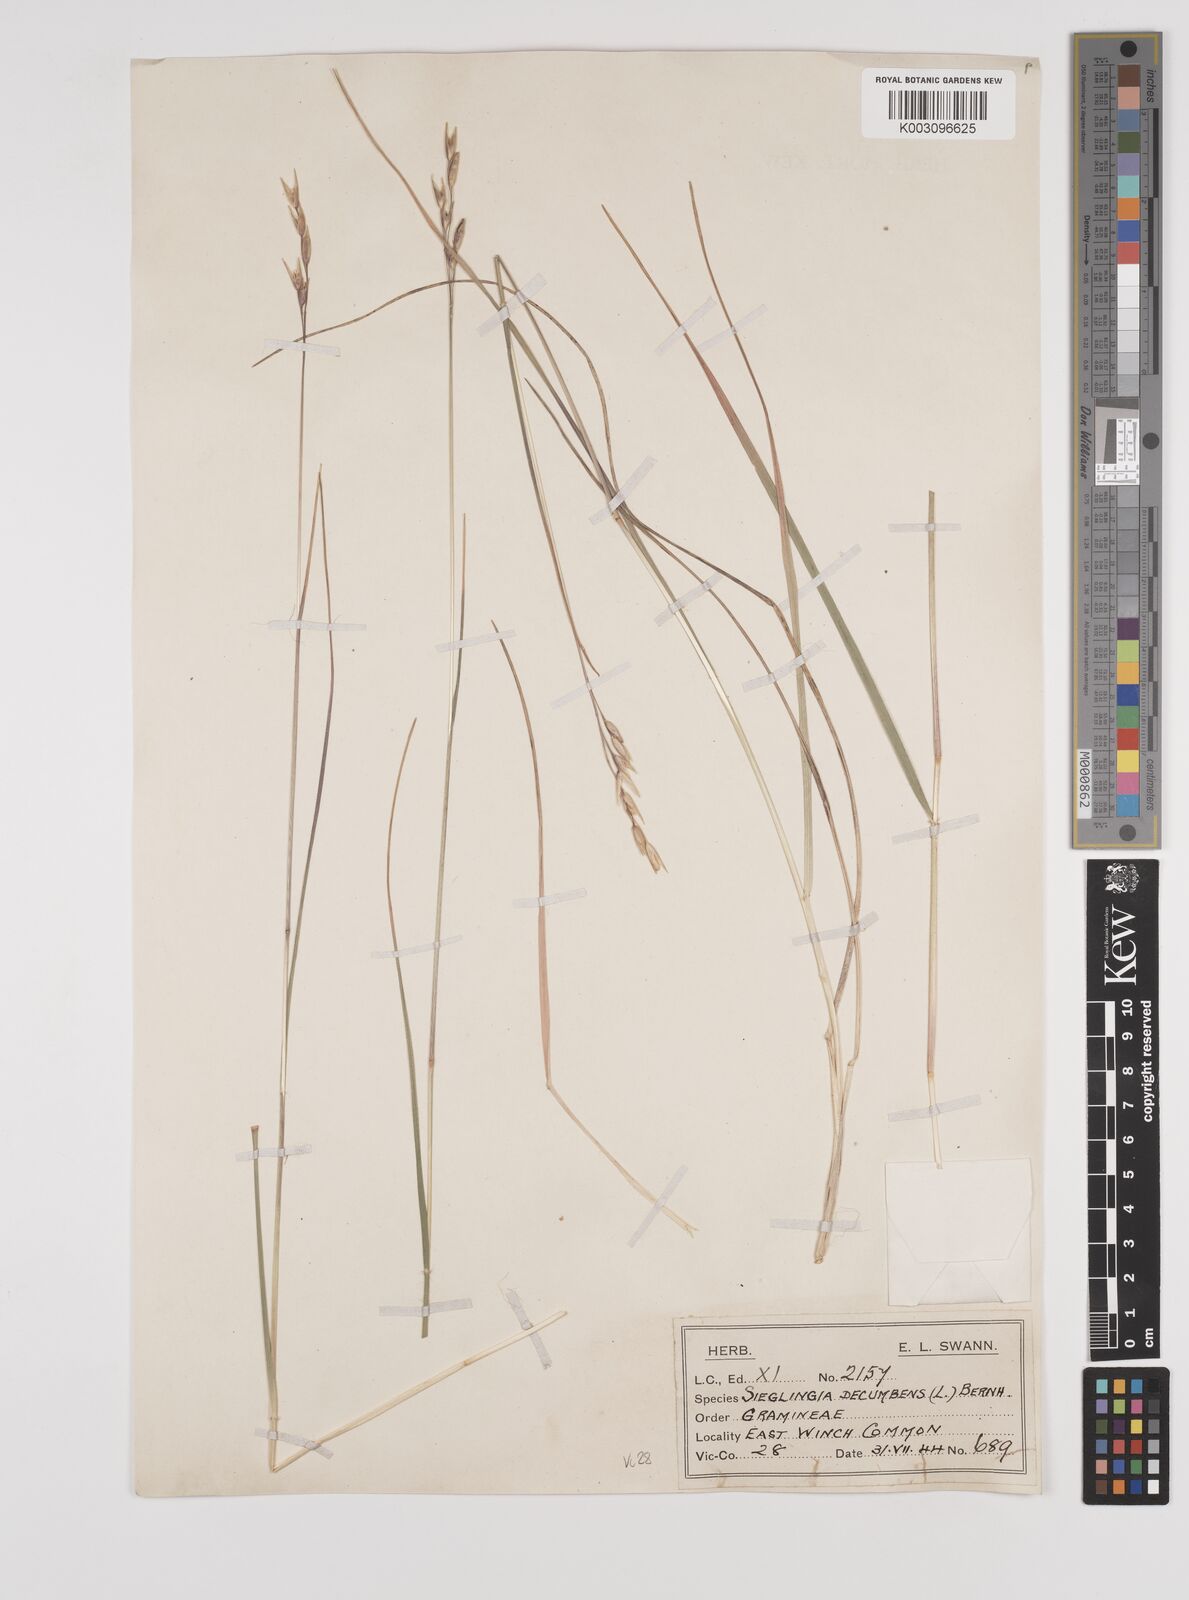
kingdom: Plantae
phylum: Tracheophyta
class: Liliopsida
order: Poales
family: Poaceae
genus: Danthonia
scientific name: Danthonia decumbens
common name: Common heathgrass
